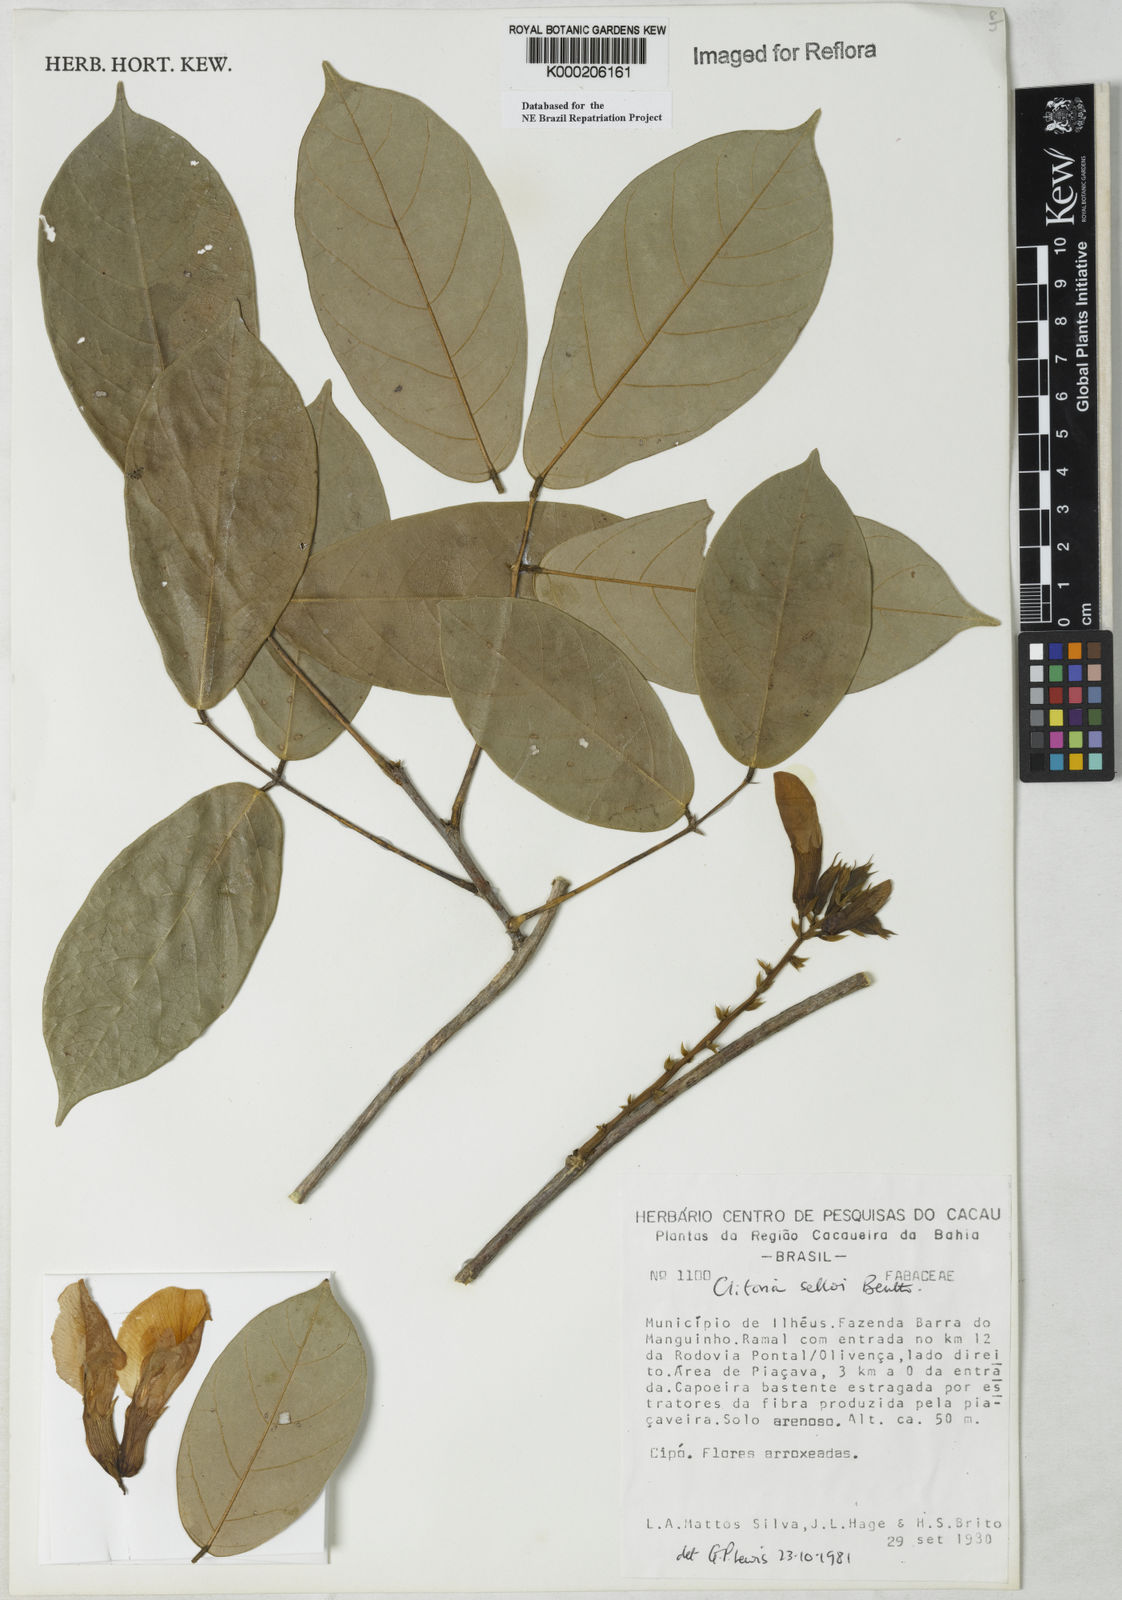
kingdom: Plantae
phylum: Tracheophyta
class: Magnoliopsida
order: Fabales
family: Fabaceae
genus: Clitoria
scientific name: Clitoria selloi
